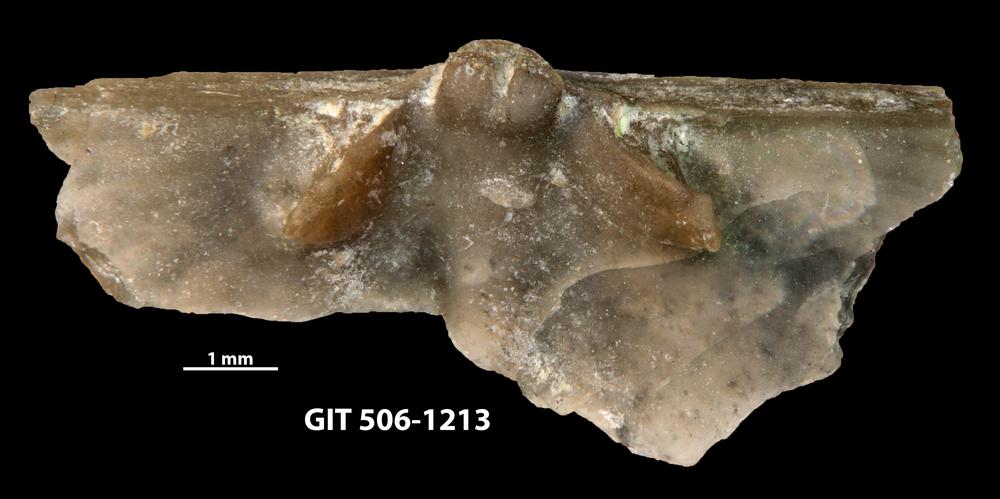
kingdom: Animalia
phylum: Brachiopoda
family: Chilidiopsidae
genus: Fardenia
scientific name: Fardenia Orthis applanata
